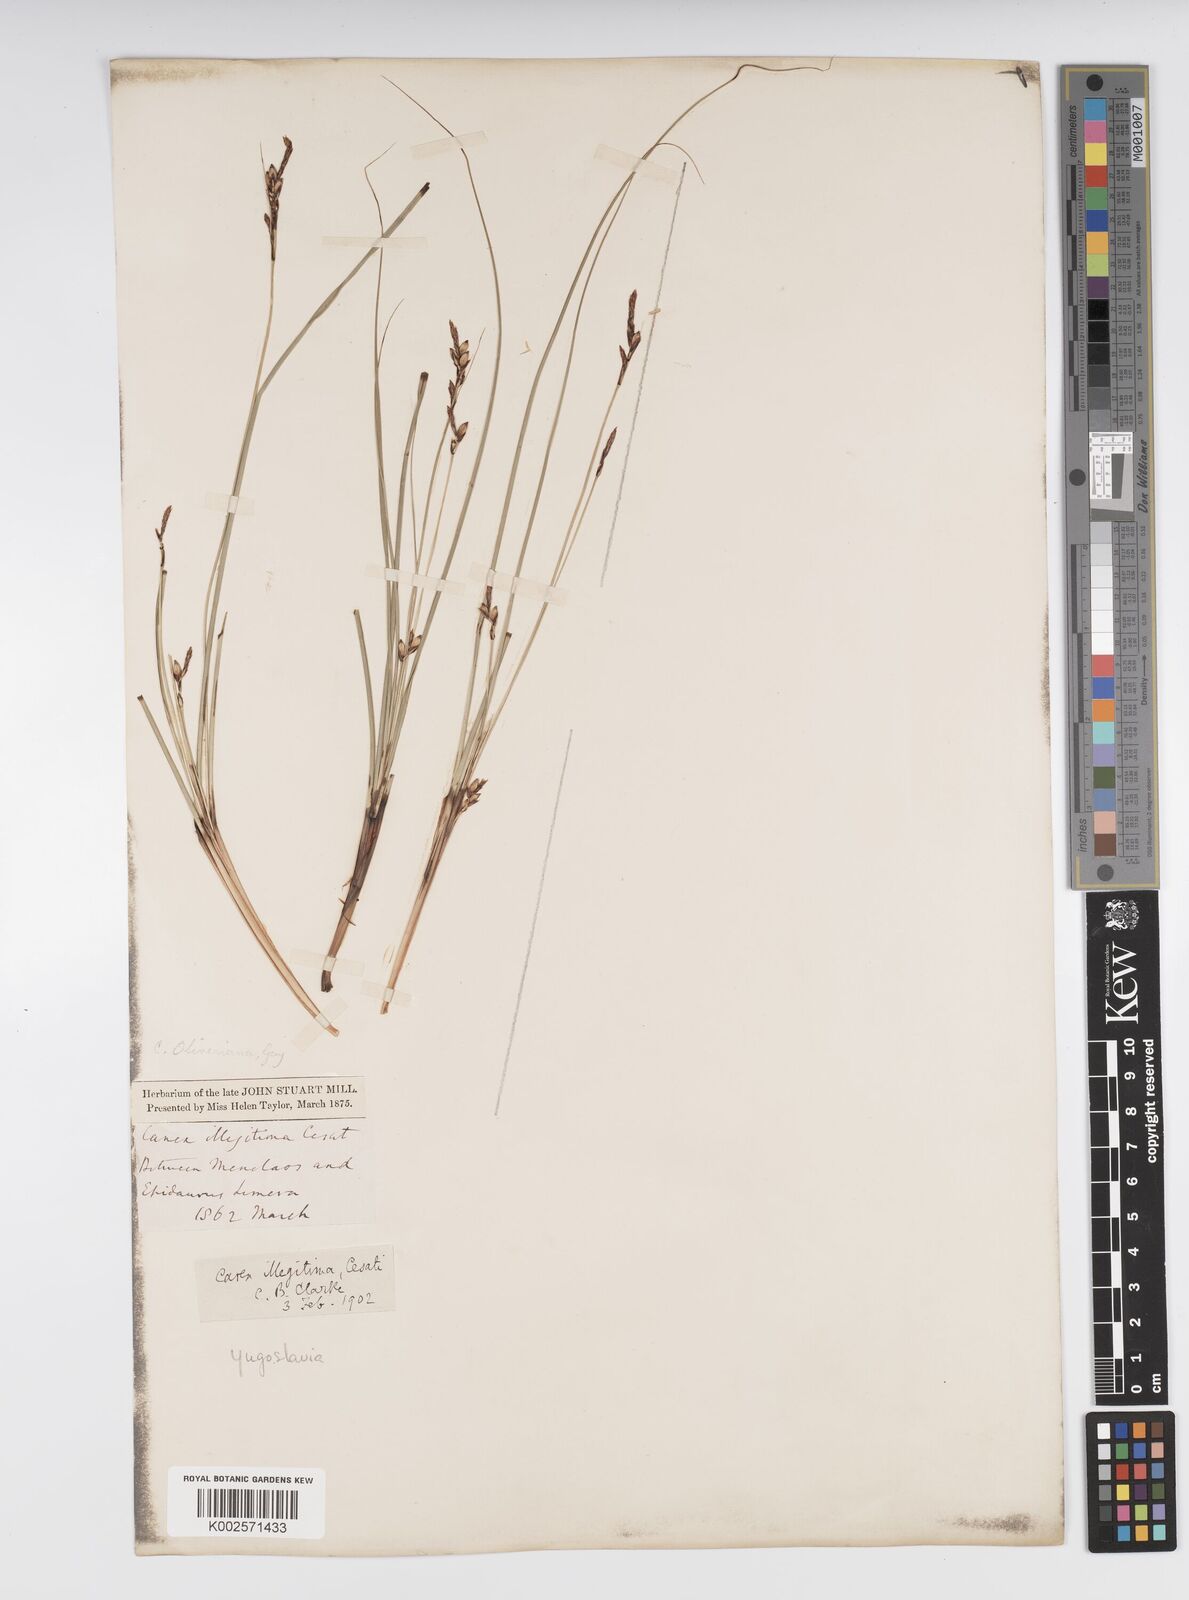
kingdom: Plantae
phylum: Tracheophyta
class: Liliopsida
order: Poales
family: Cyperaceae
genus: Carex
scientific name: Carex illegitima
